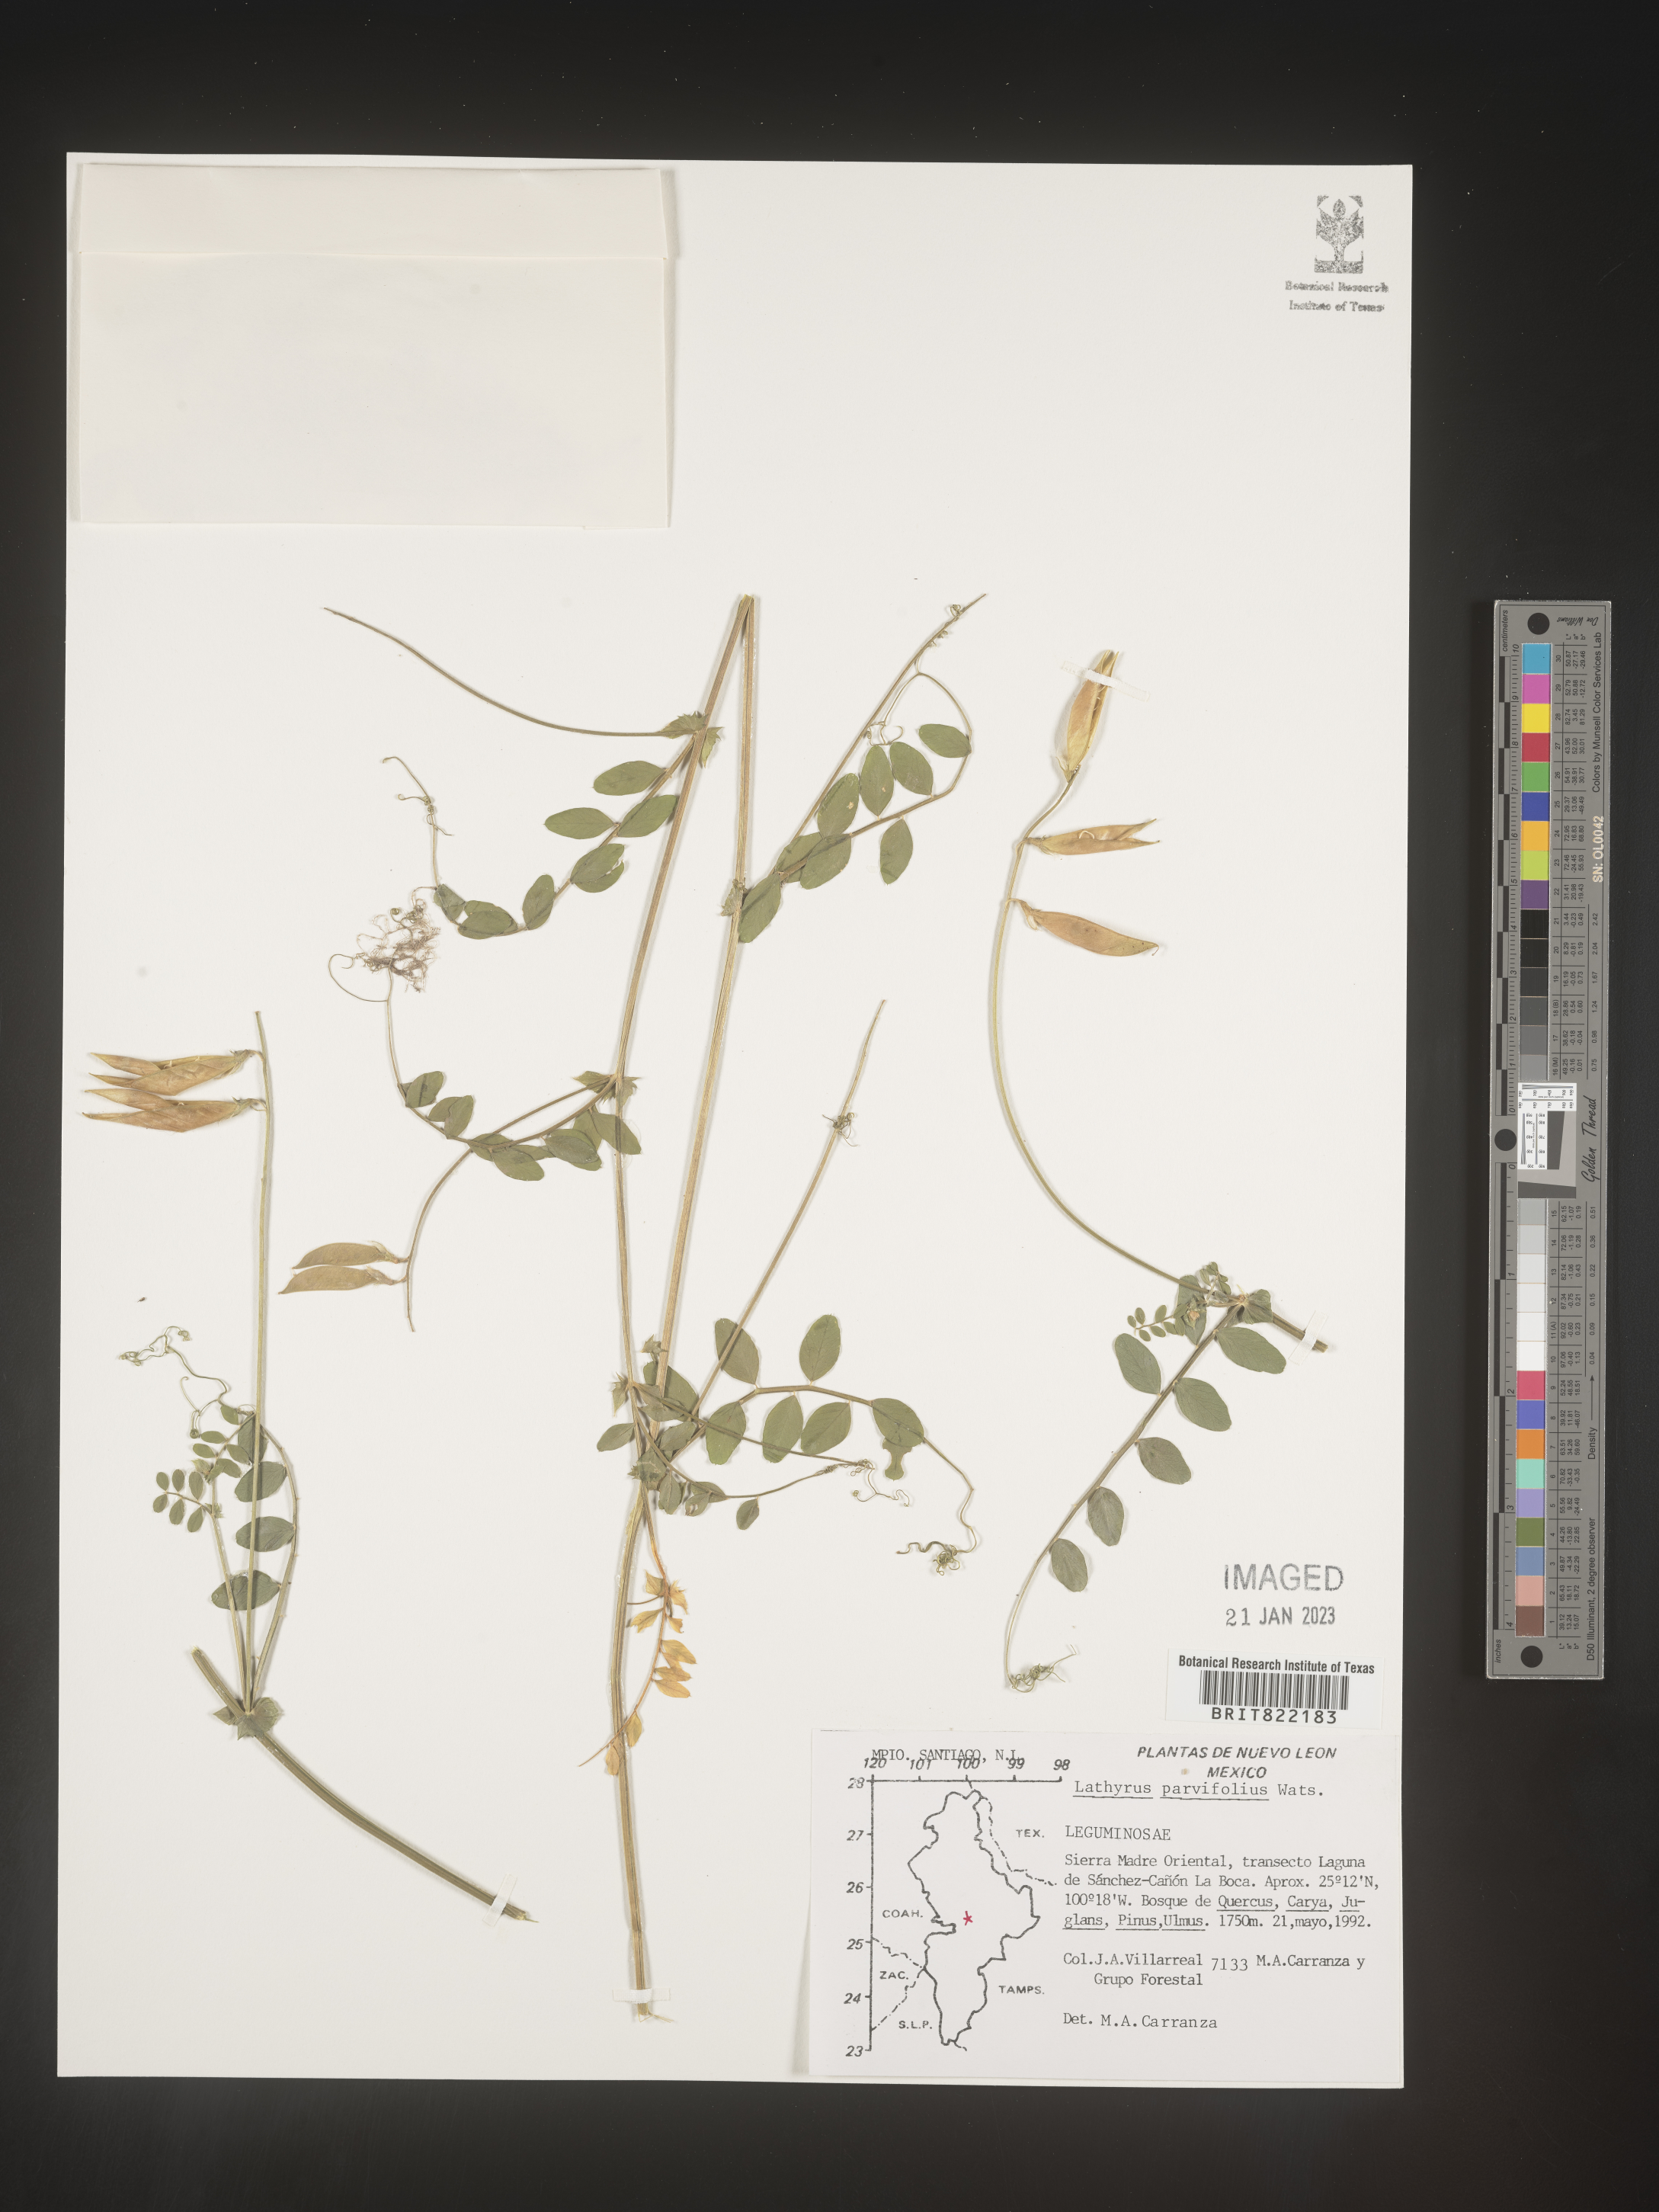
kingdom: Plantae
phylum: Tracheophyta
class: Magnoliopsida
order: Fabales
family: Fabaceae
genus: Lathyrus
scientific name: Lathyrus
